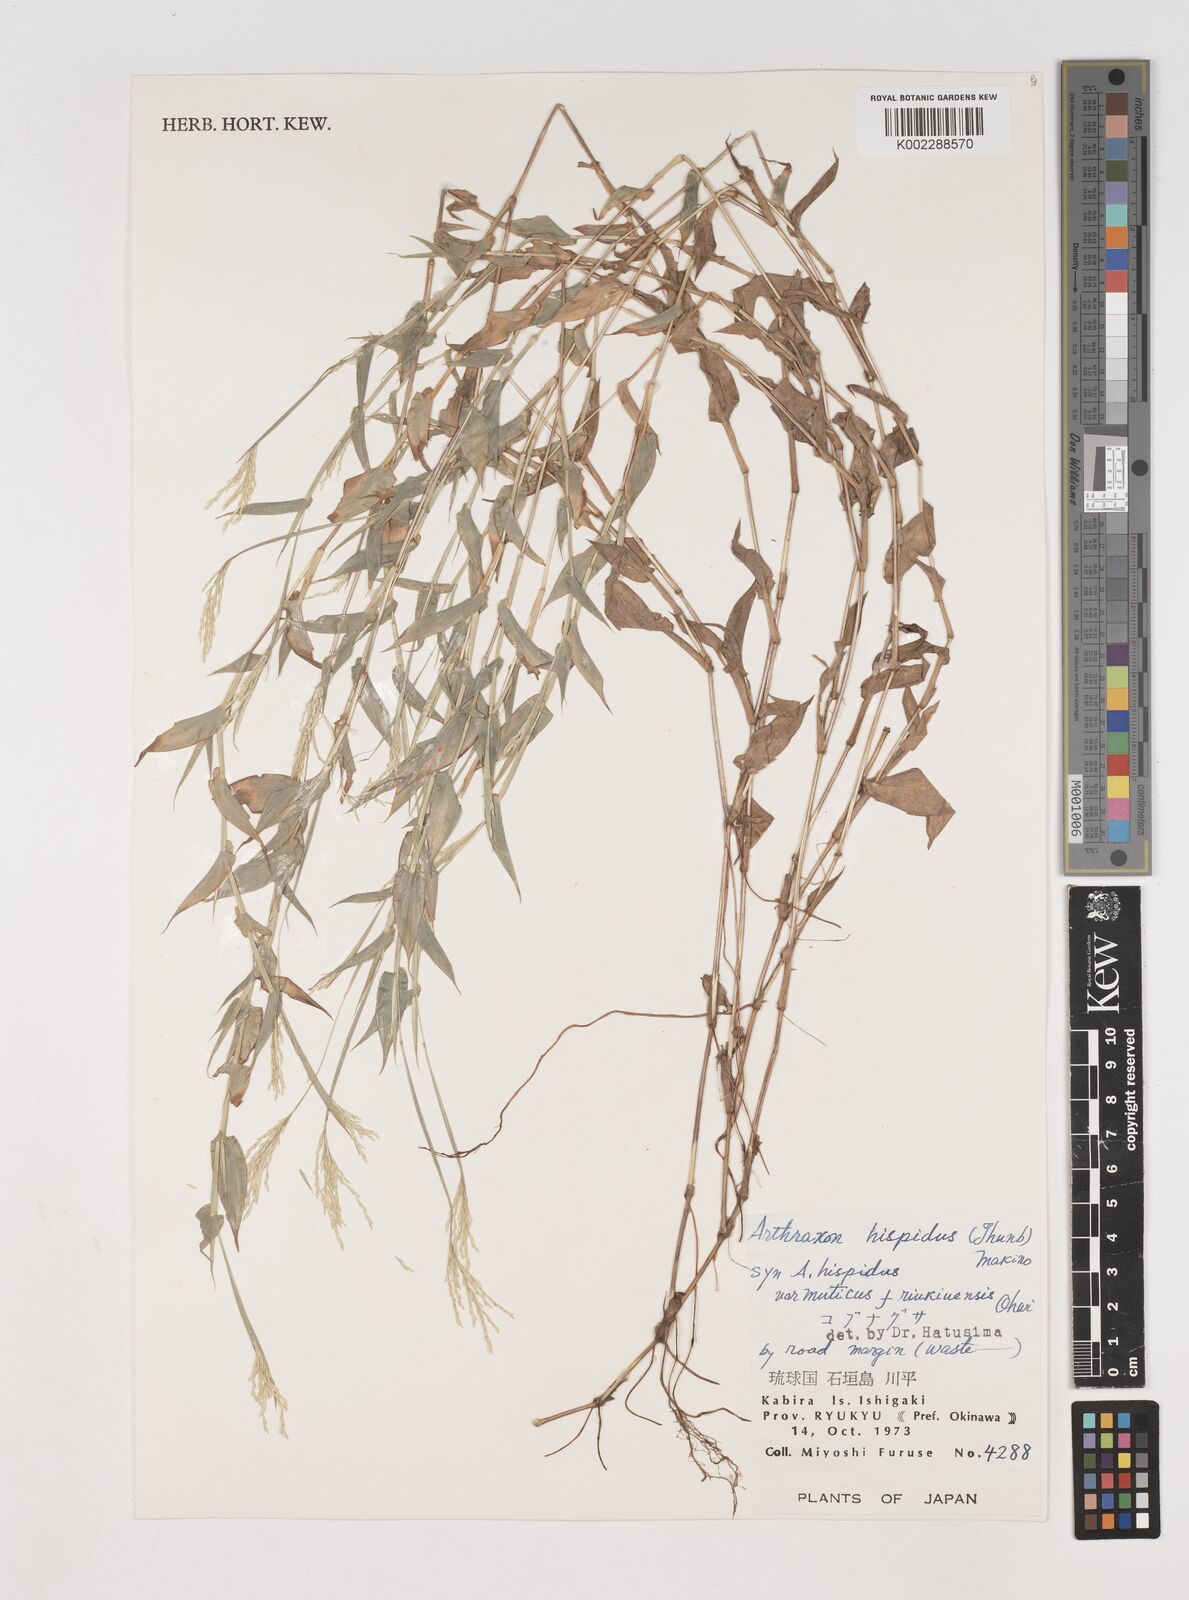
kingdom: Plantae
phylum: Tracheophyta
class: Liliopsida
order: Poales
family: Poaceae
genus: Arthraxon
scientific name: Arthraxon hispidus
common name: Small carpgrass
